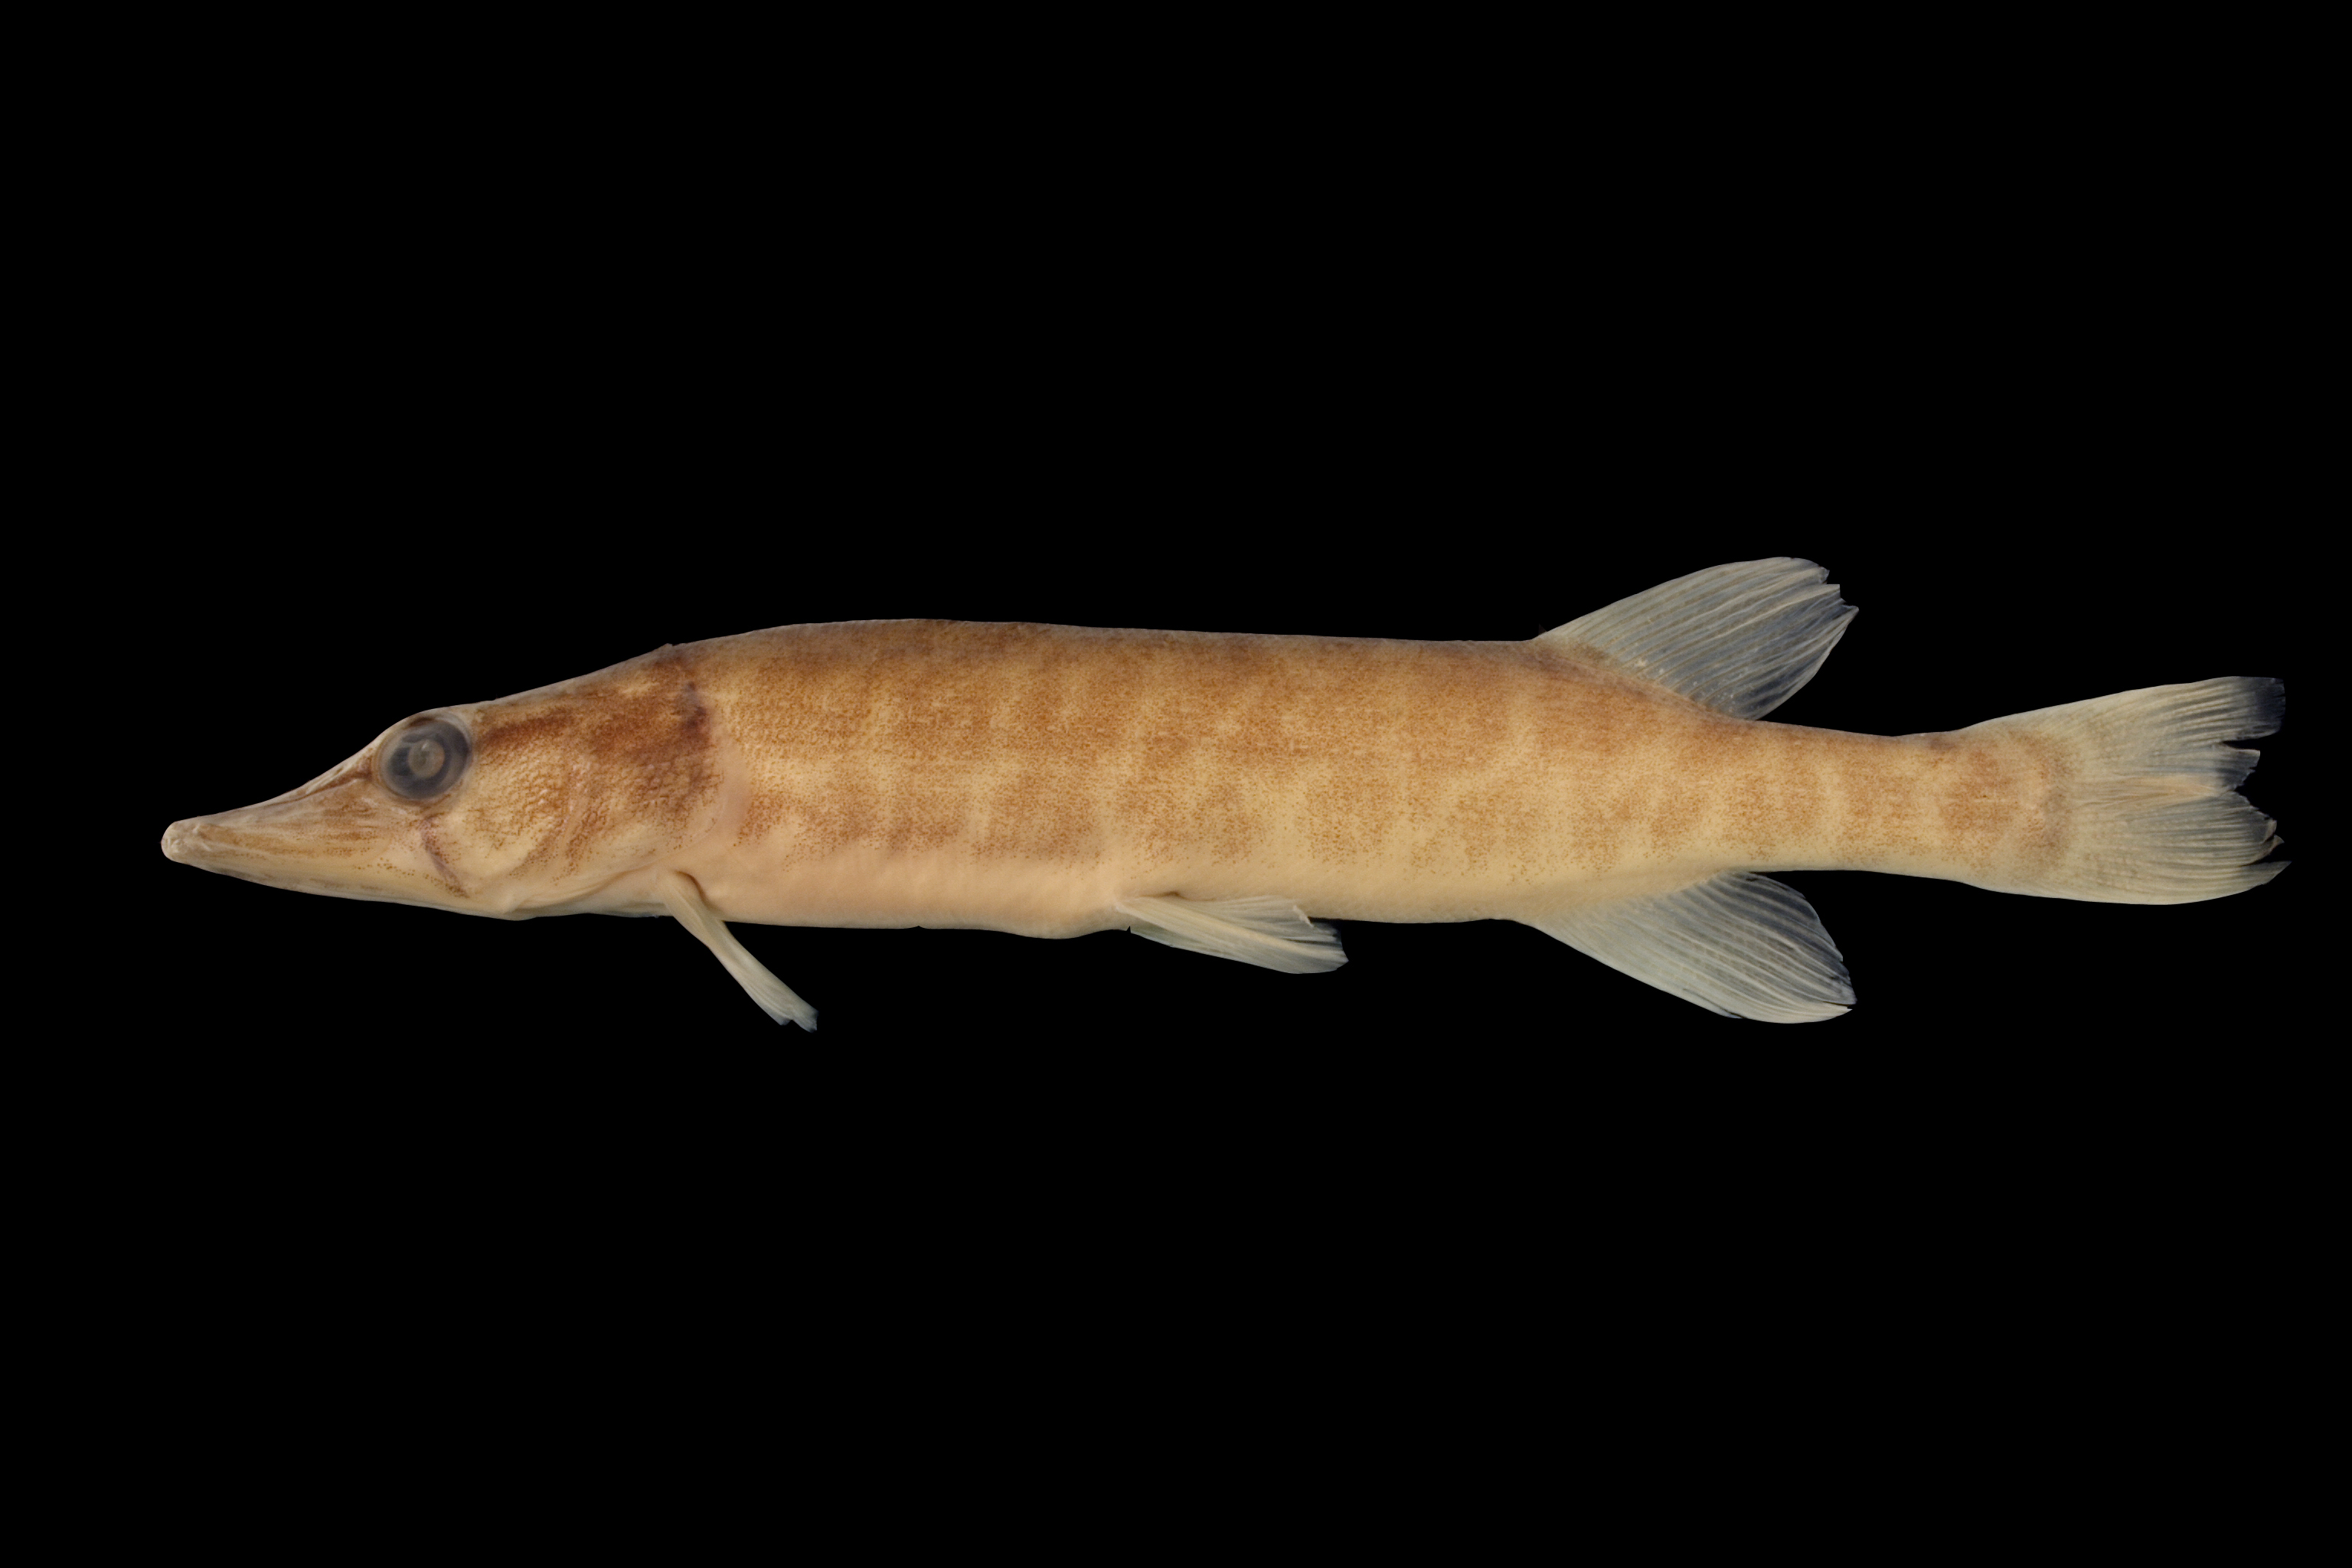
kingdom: Animalia
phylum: Chordata
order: Esociformes
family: Esocidae
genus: Esox
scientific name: Esox americanus
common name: Redfin pickerel
